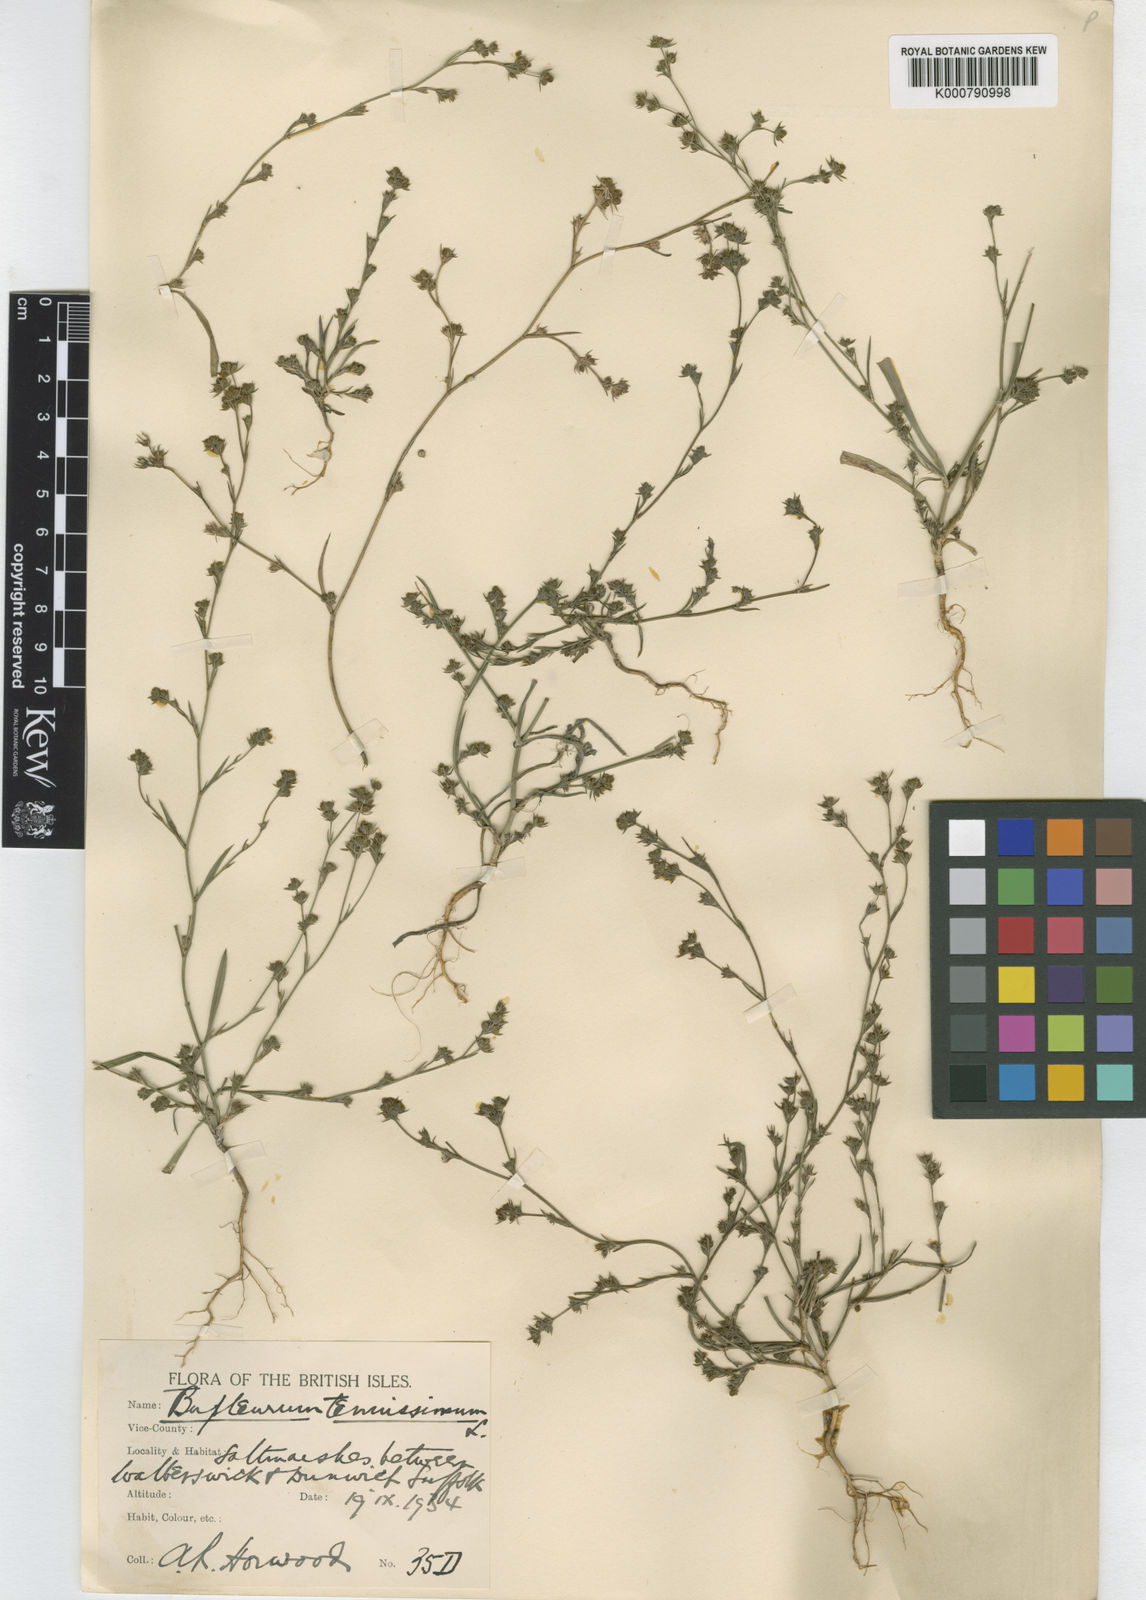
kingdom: Plantae
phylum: Tracheophyta
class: Magnoliopsida
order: Apiales
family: Apiaceae
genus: Bupleurum
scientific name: Bupleurum tenuissimum
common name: Slender hare's-ear
